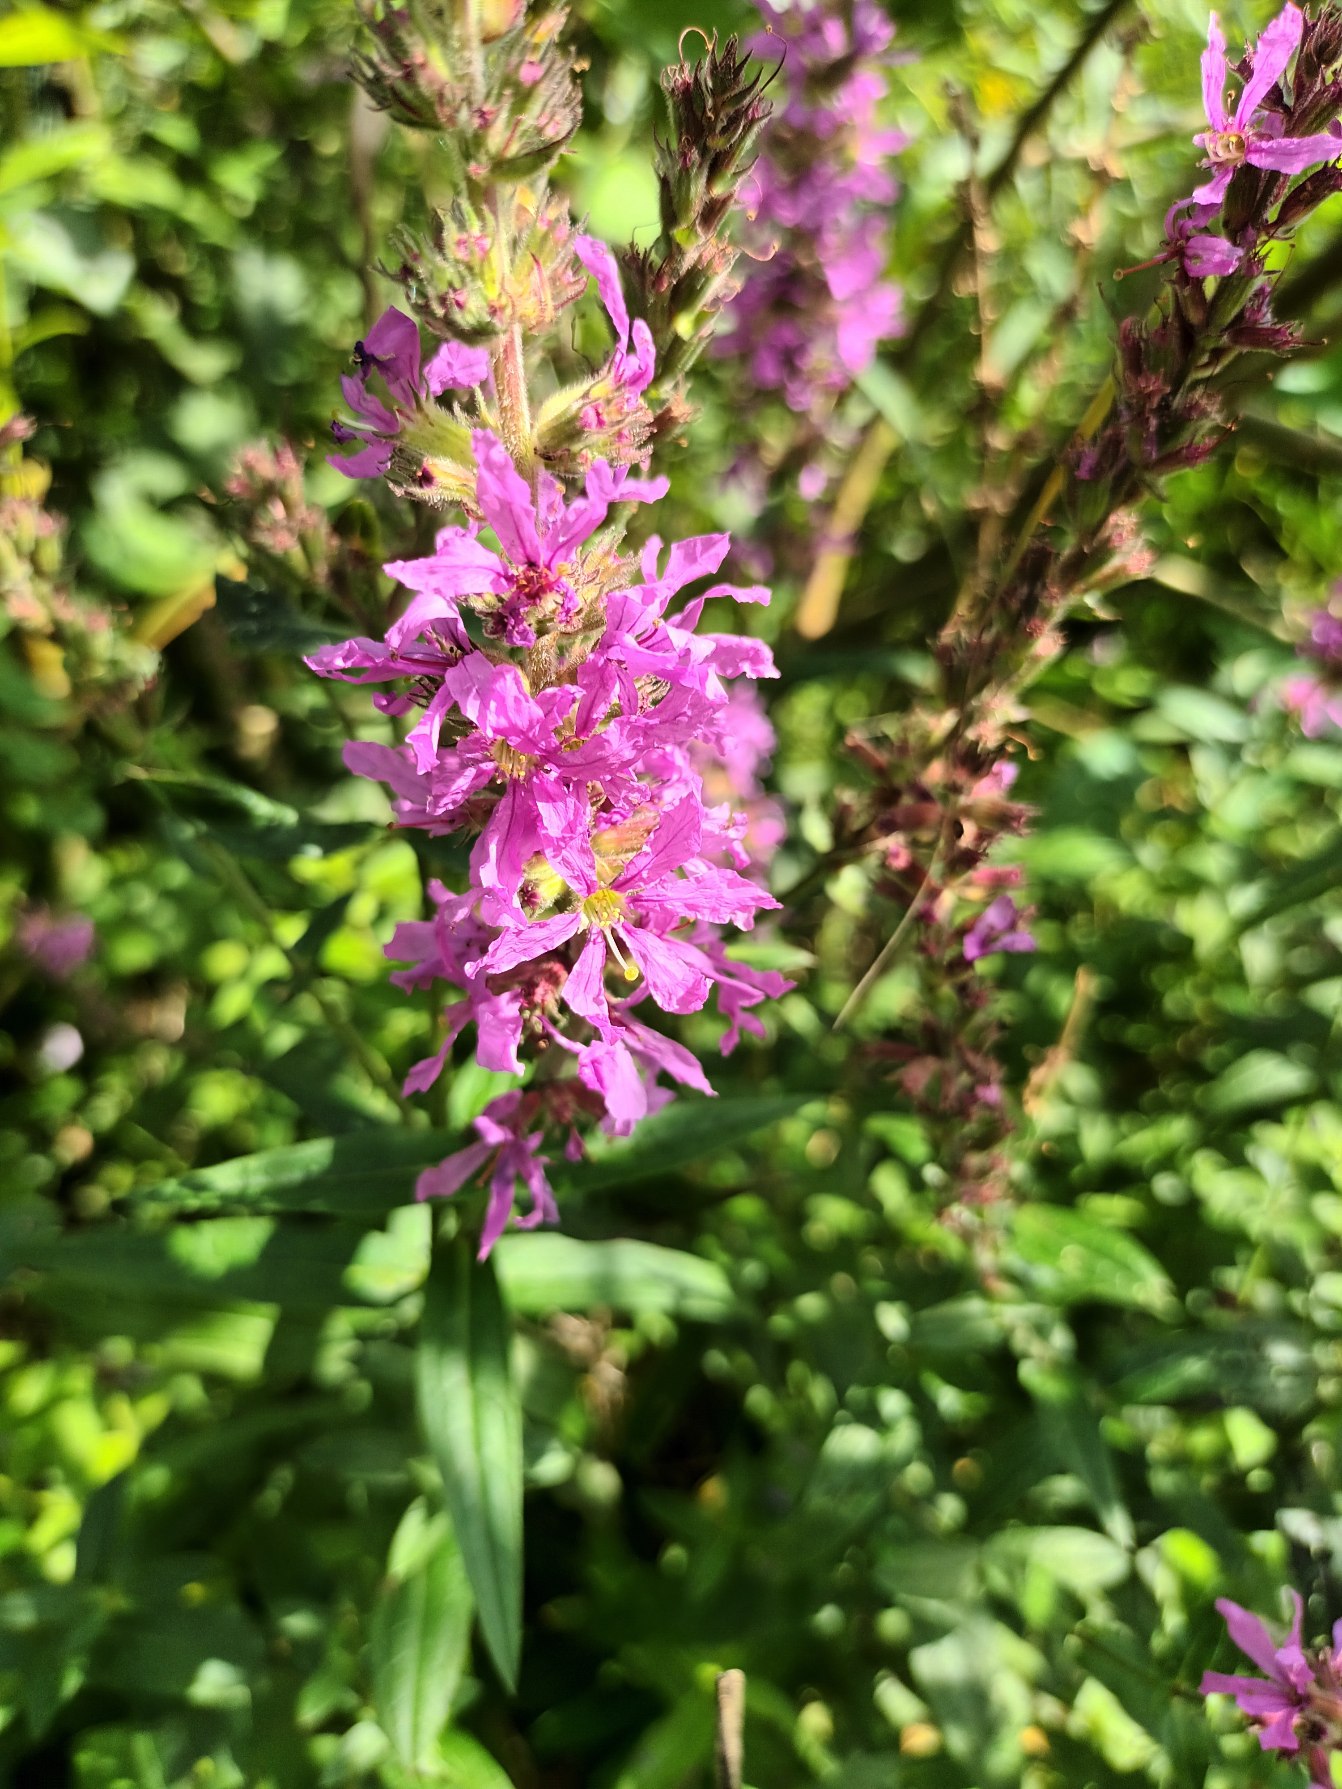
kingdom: Plantae
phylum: Tracheophyta
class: Magnoliopsida
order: Myrtales
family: Lythraceae
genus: Lythrum
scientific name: Lythrum salicaria
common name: Kattehale
